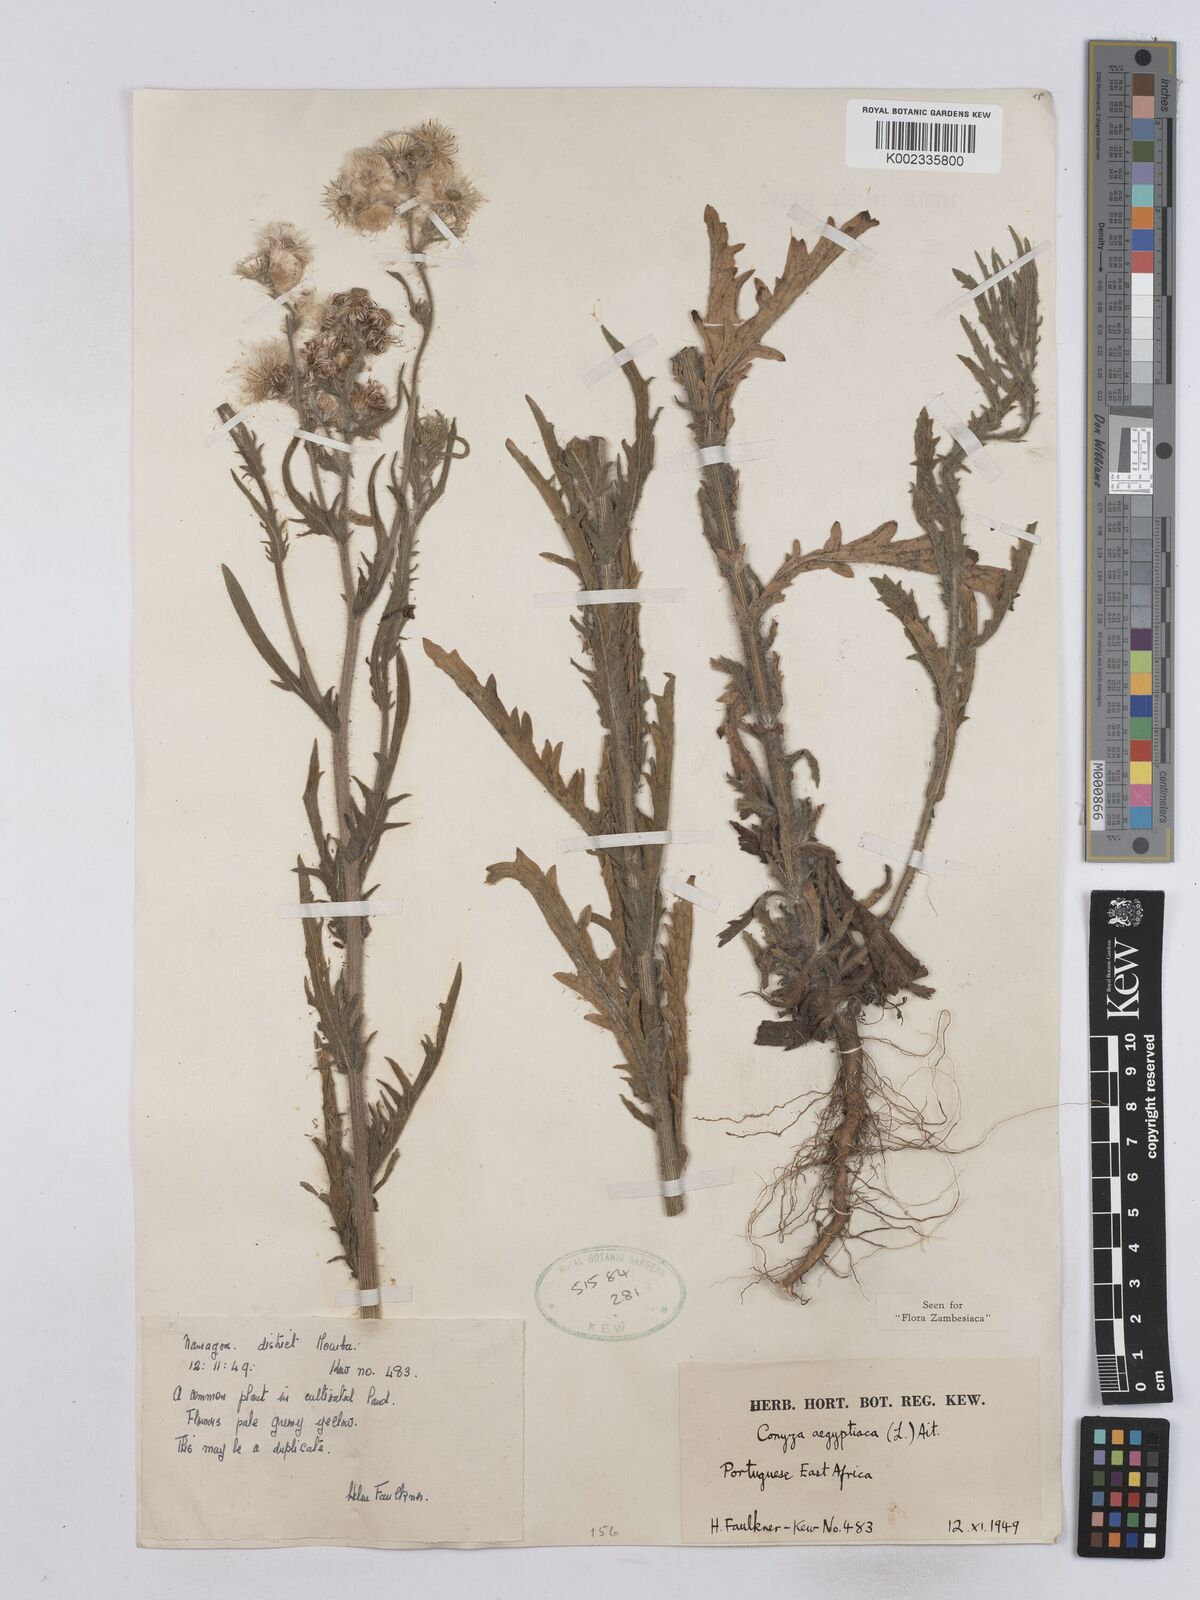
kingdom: Plantae
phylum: Tracheophyta
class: Magnoliopsida
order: Asterales
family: Asteraceae
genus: Nidorella
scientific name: Nidorella aegyptiaca
